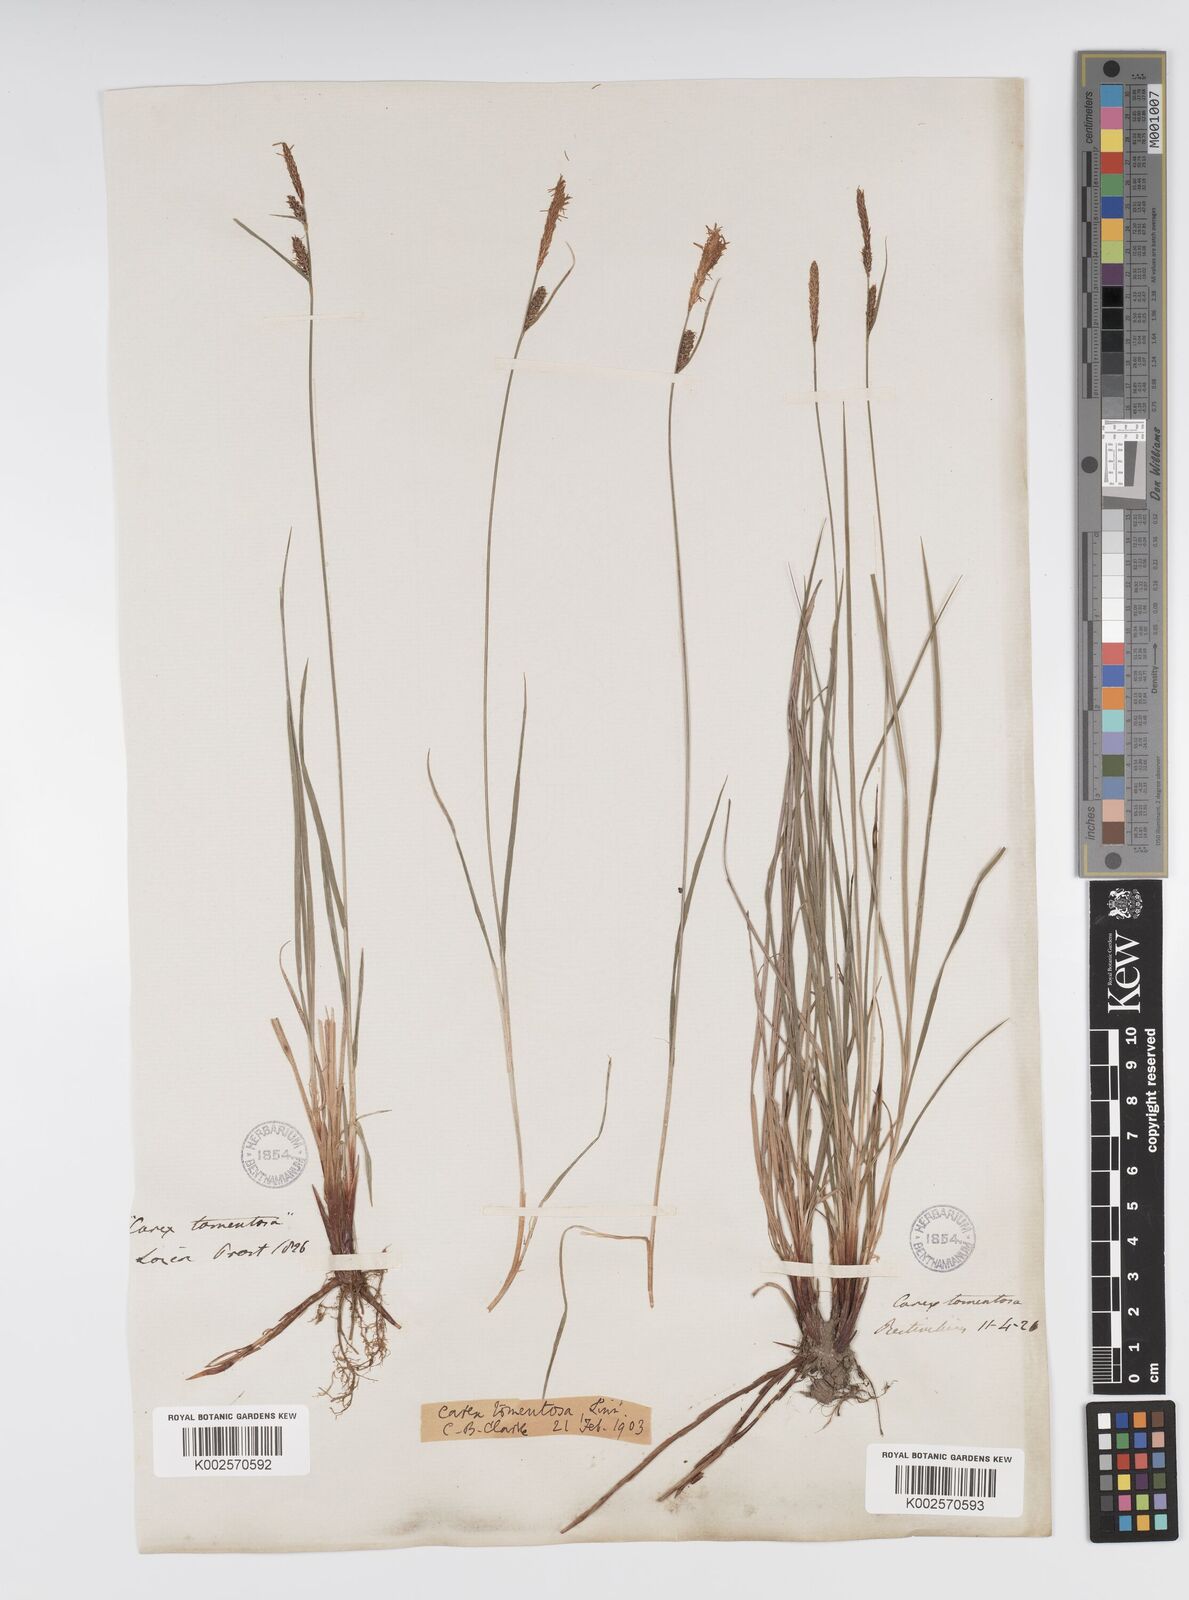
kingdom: Plantae
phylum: Tracheophyta
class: Liliopsida
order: Poales
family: Cyperaceae
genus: Carex
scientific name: Carex montana
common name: Soft-leaved sedge
